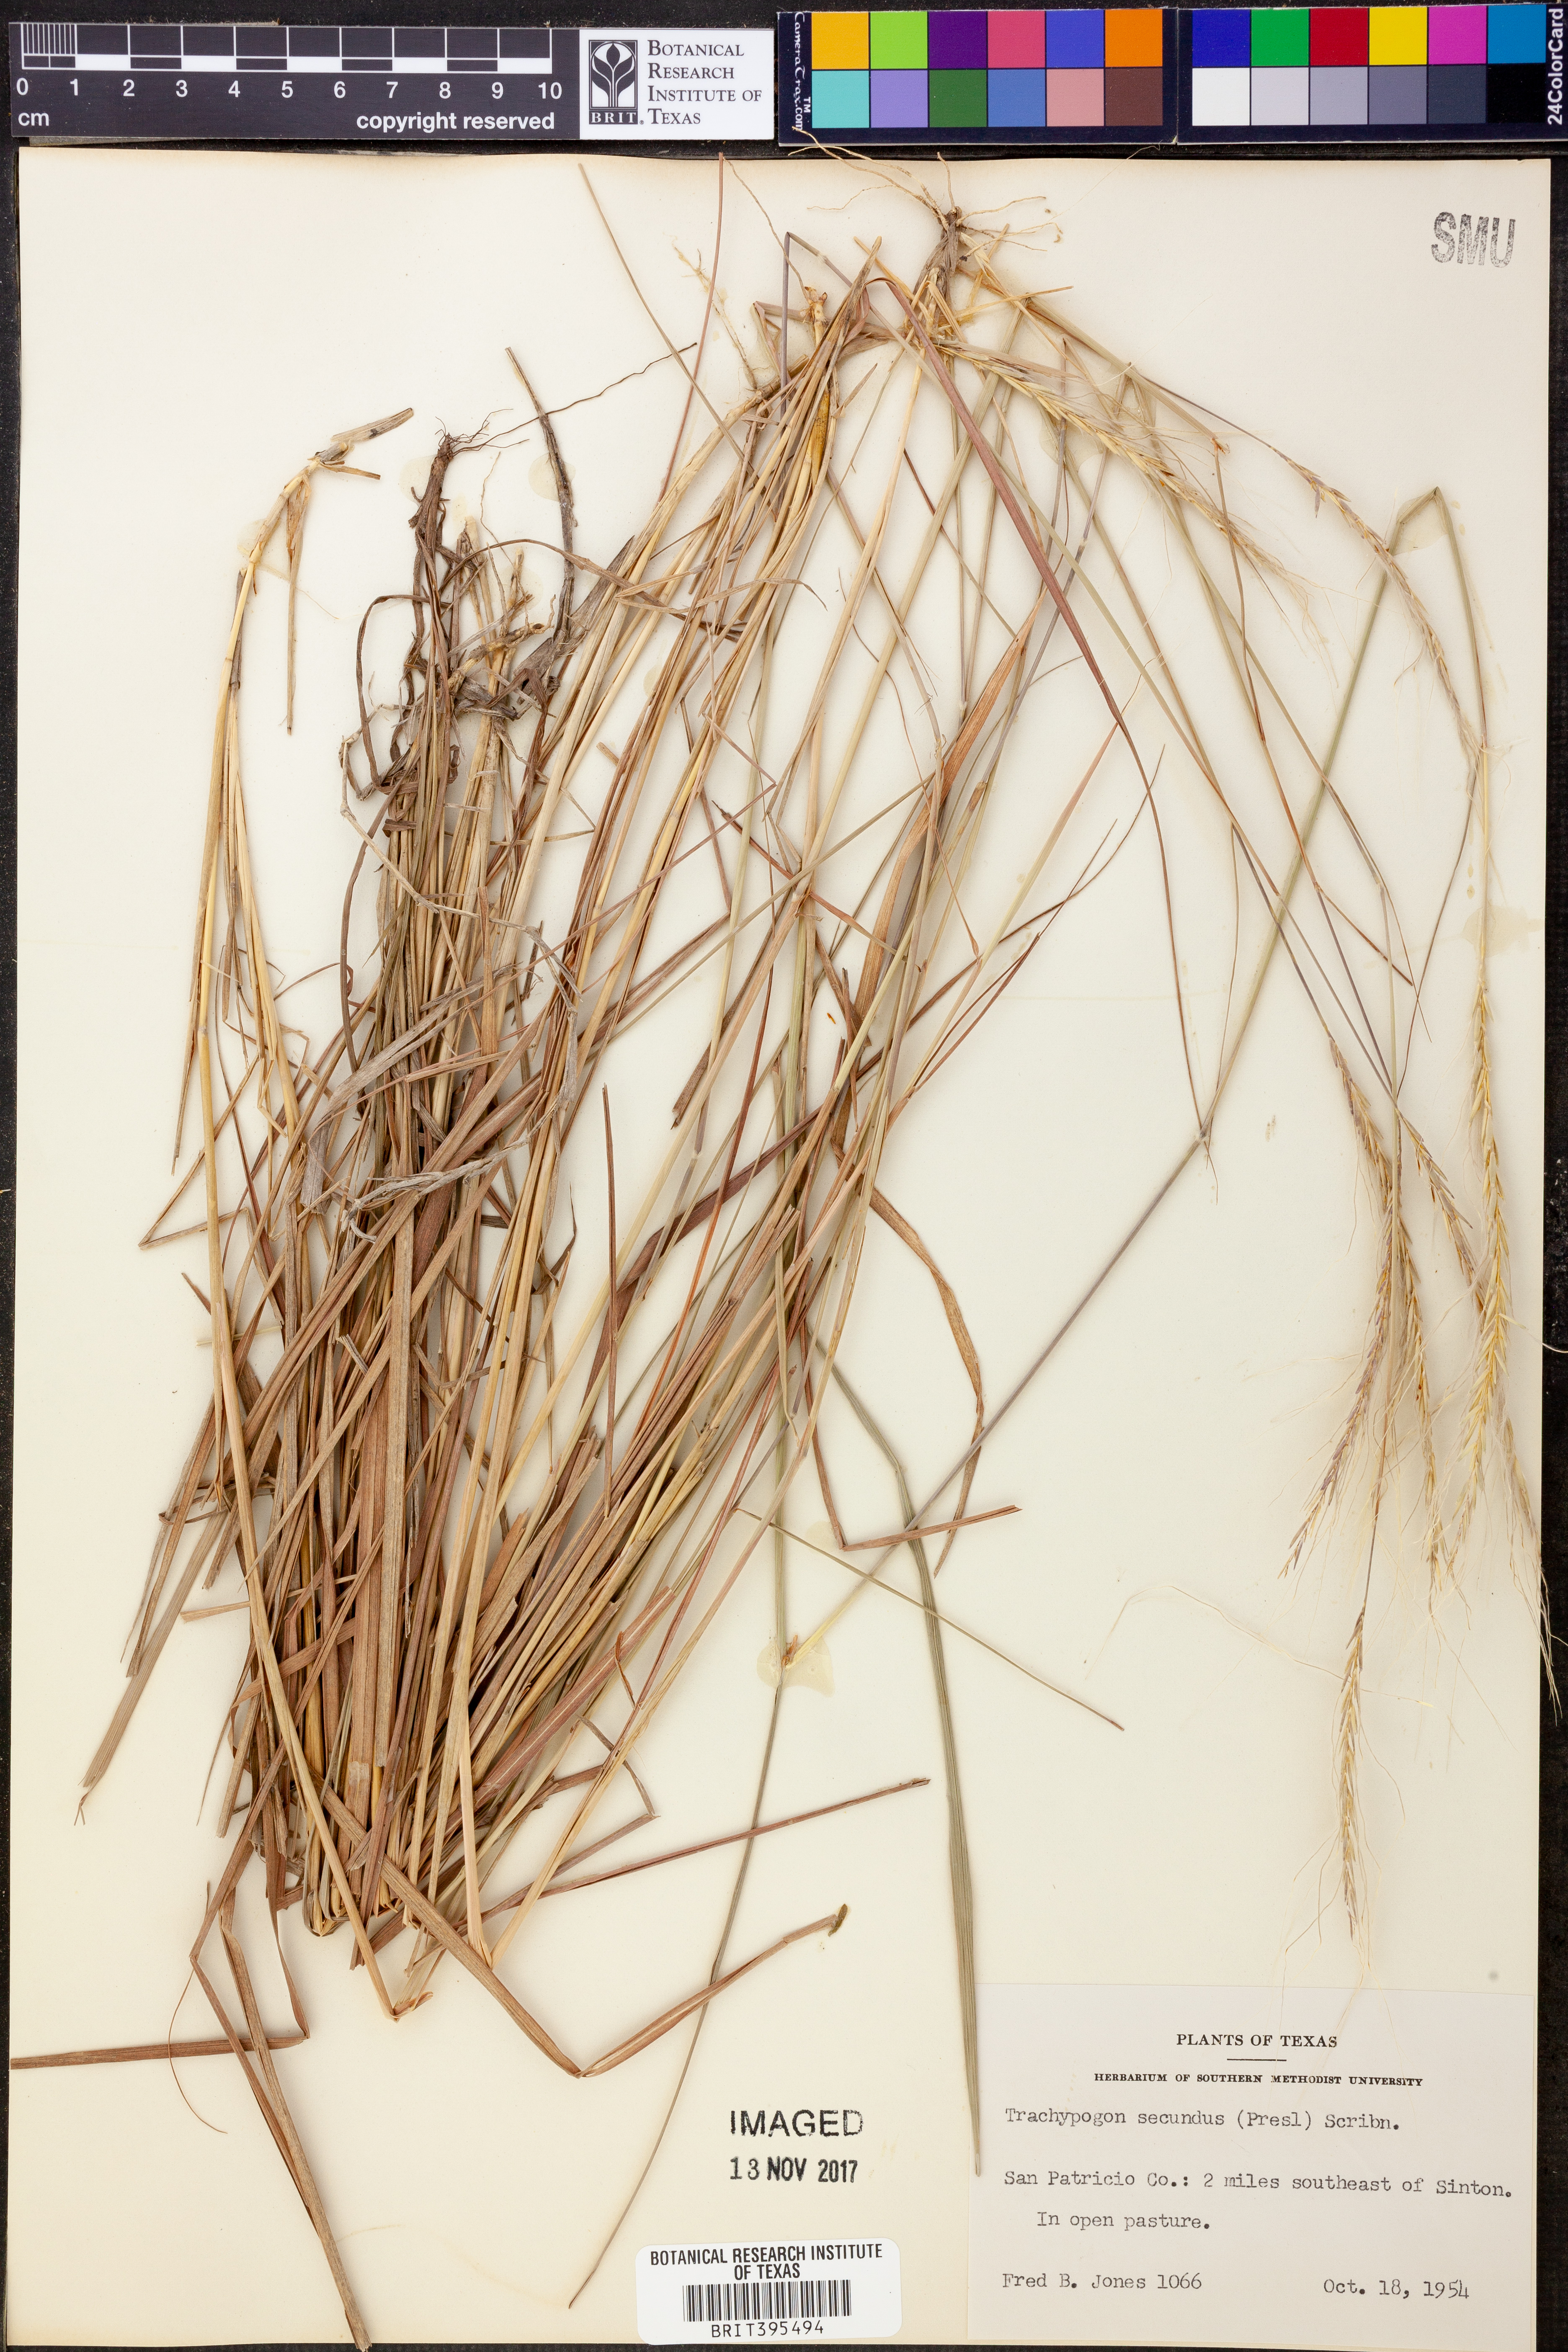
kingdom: Plantae
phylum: Tracheophyta
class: Liliopsida
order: Poales
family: Poaceae
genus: Trachypogon
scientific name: Trachypogon spicatus
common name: Crinkle-awn
